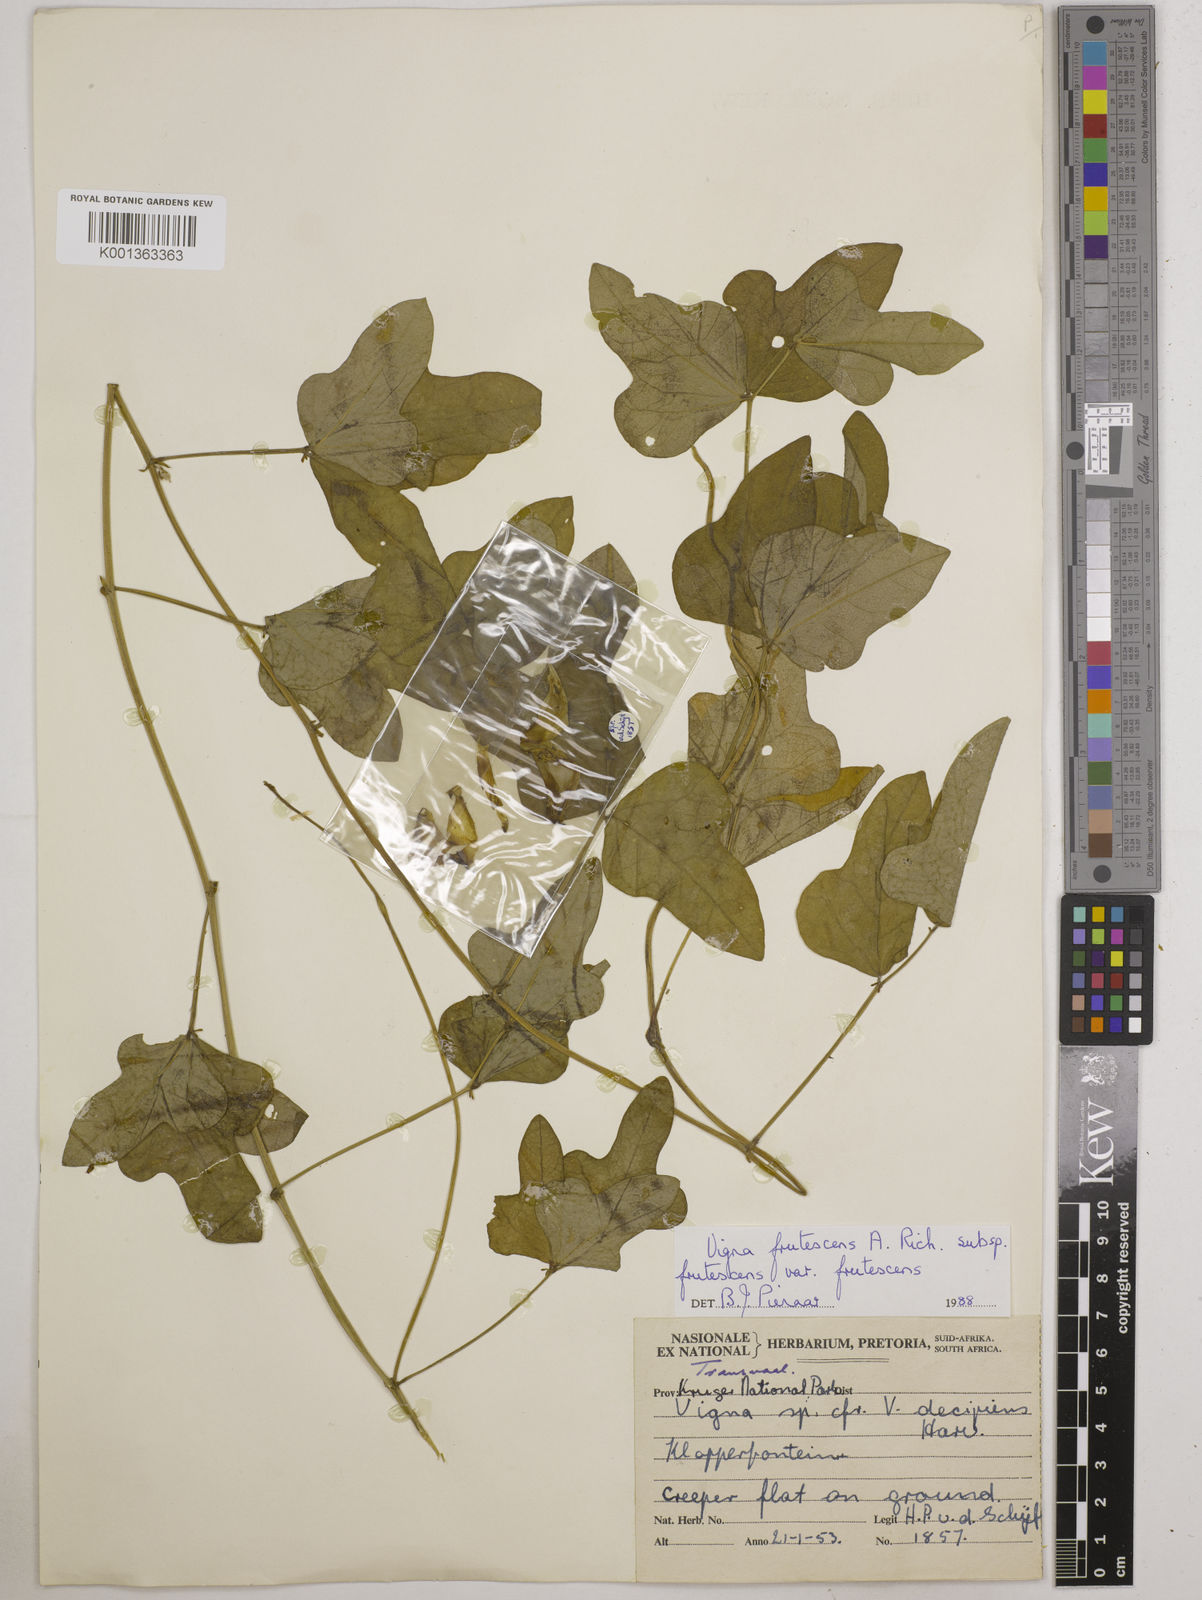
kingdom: Plantae
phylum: Tracheophyta
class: Magnoliopsida
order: Fabales
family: Fabaceae
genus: Vigna
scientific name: Vigna frutescens
